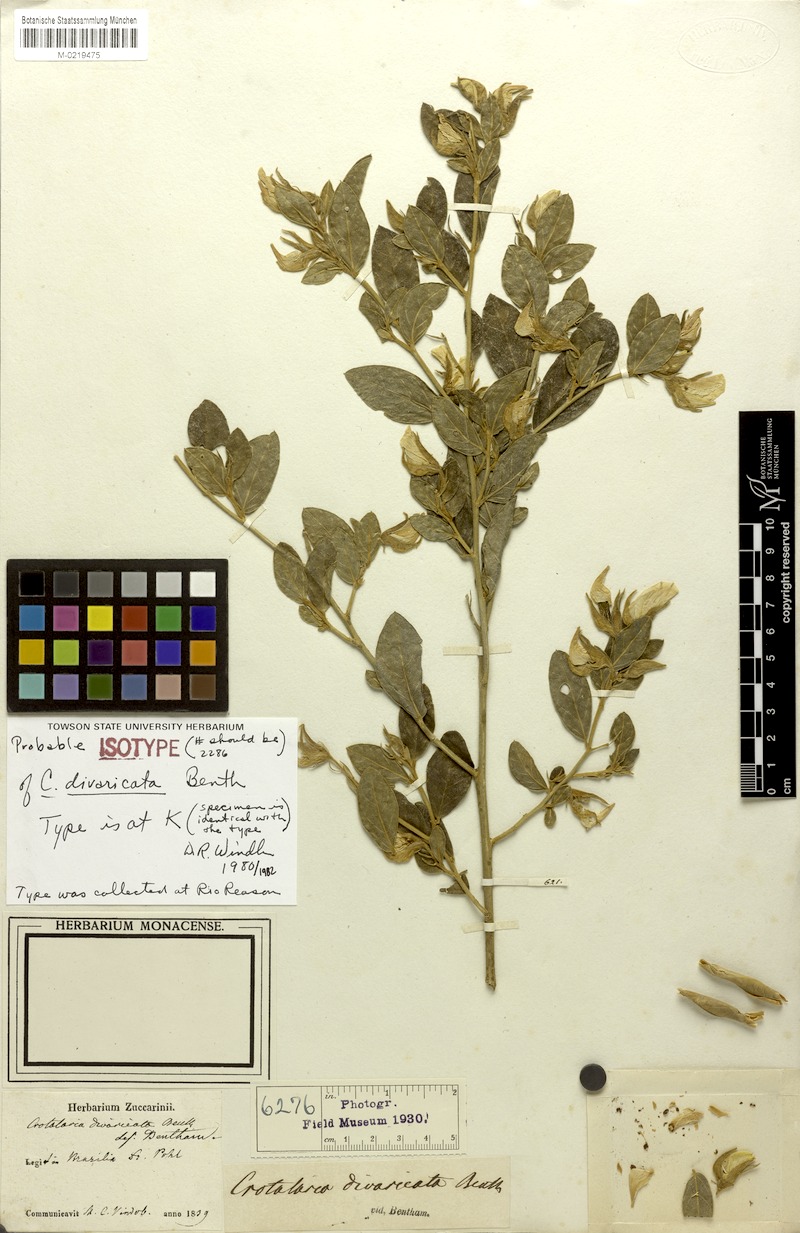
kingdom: Plantae
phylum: Tracheophyta
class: Magnoliopsida
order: Fabales
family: Fabaceae
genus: Crotalaria
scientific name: Crotalaria grandiflora
